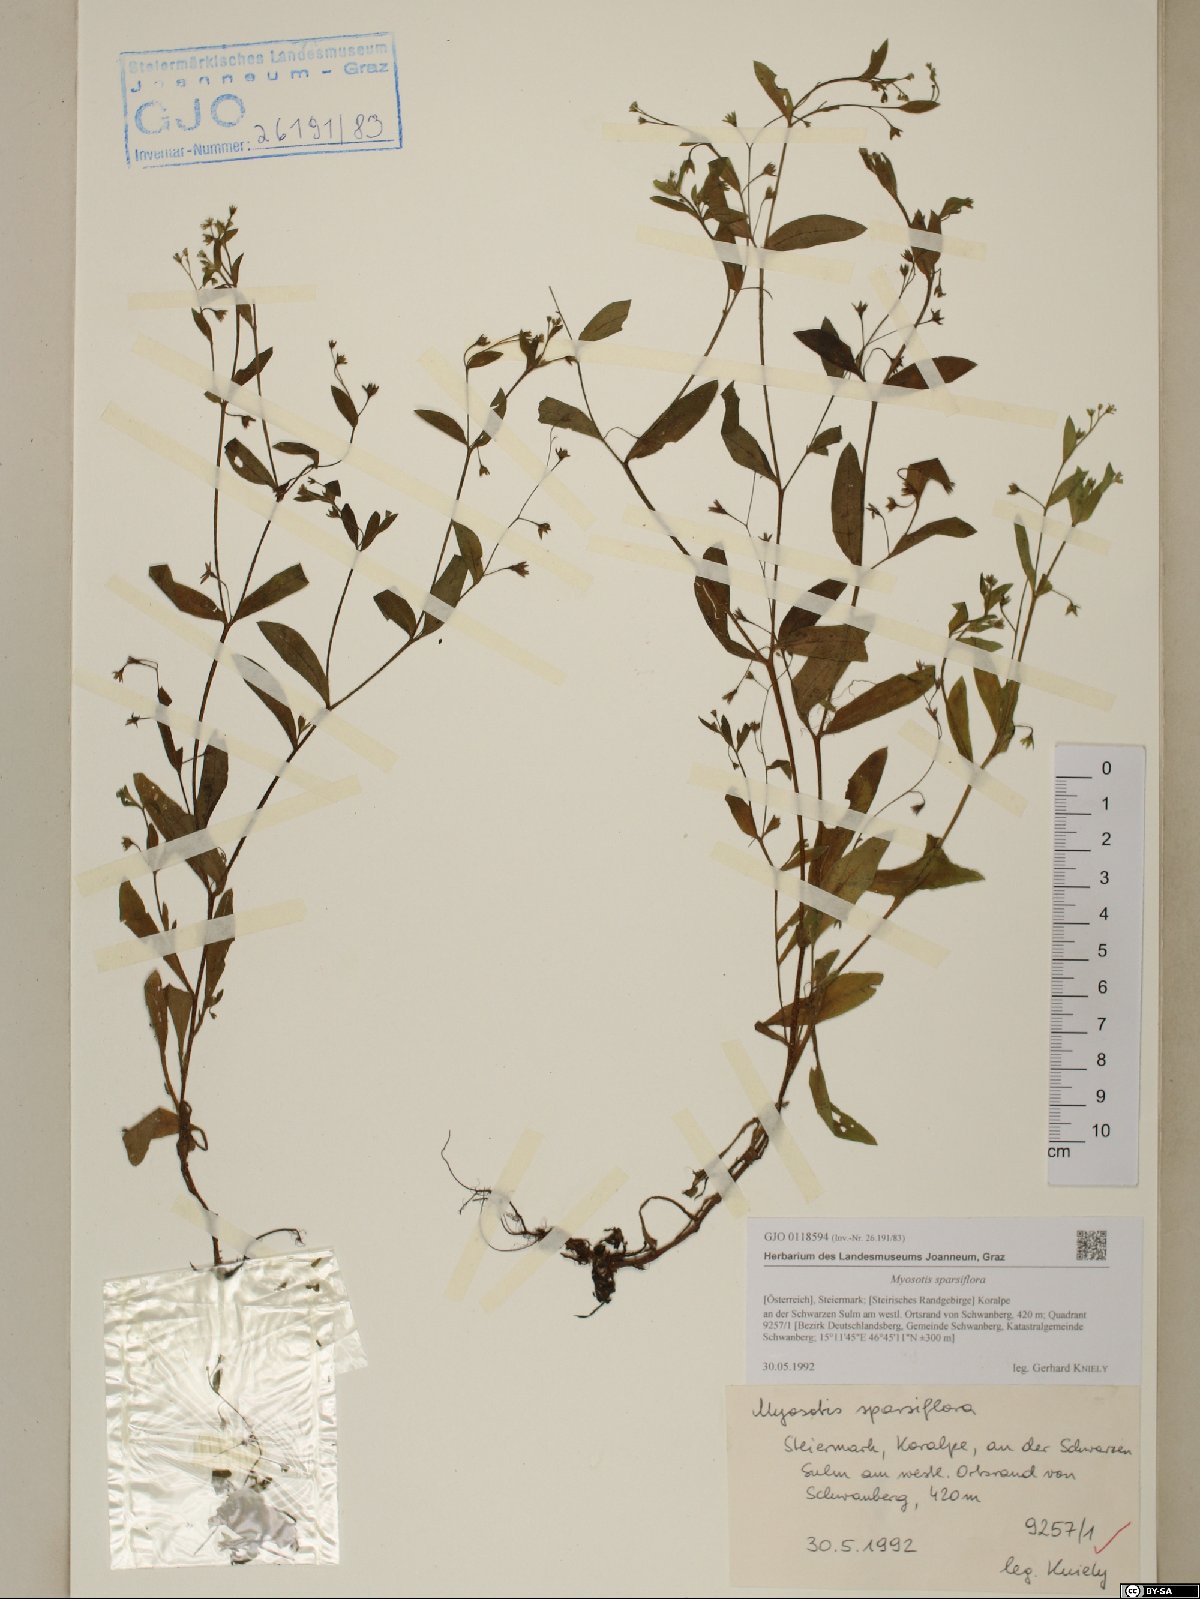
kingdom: Plantae
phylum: Tracheophyta
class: Magnoliopsida
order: Boraginales
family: Boraginaceae
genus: Myosotis
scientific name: Myosotis sparsiflora
